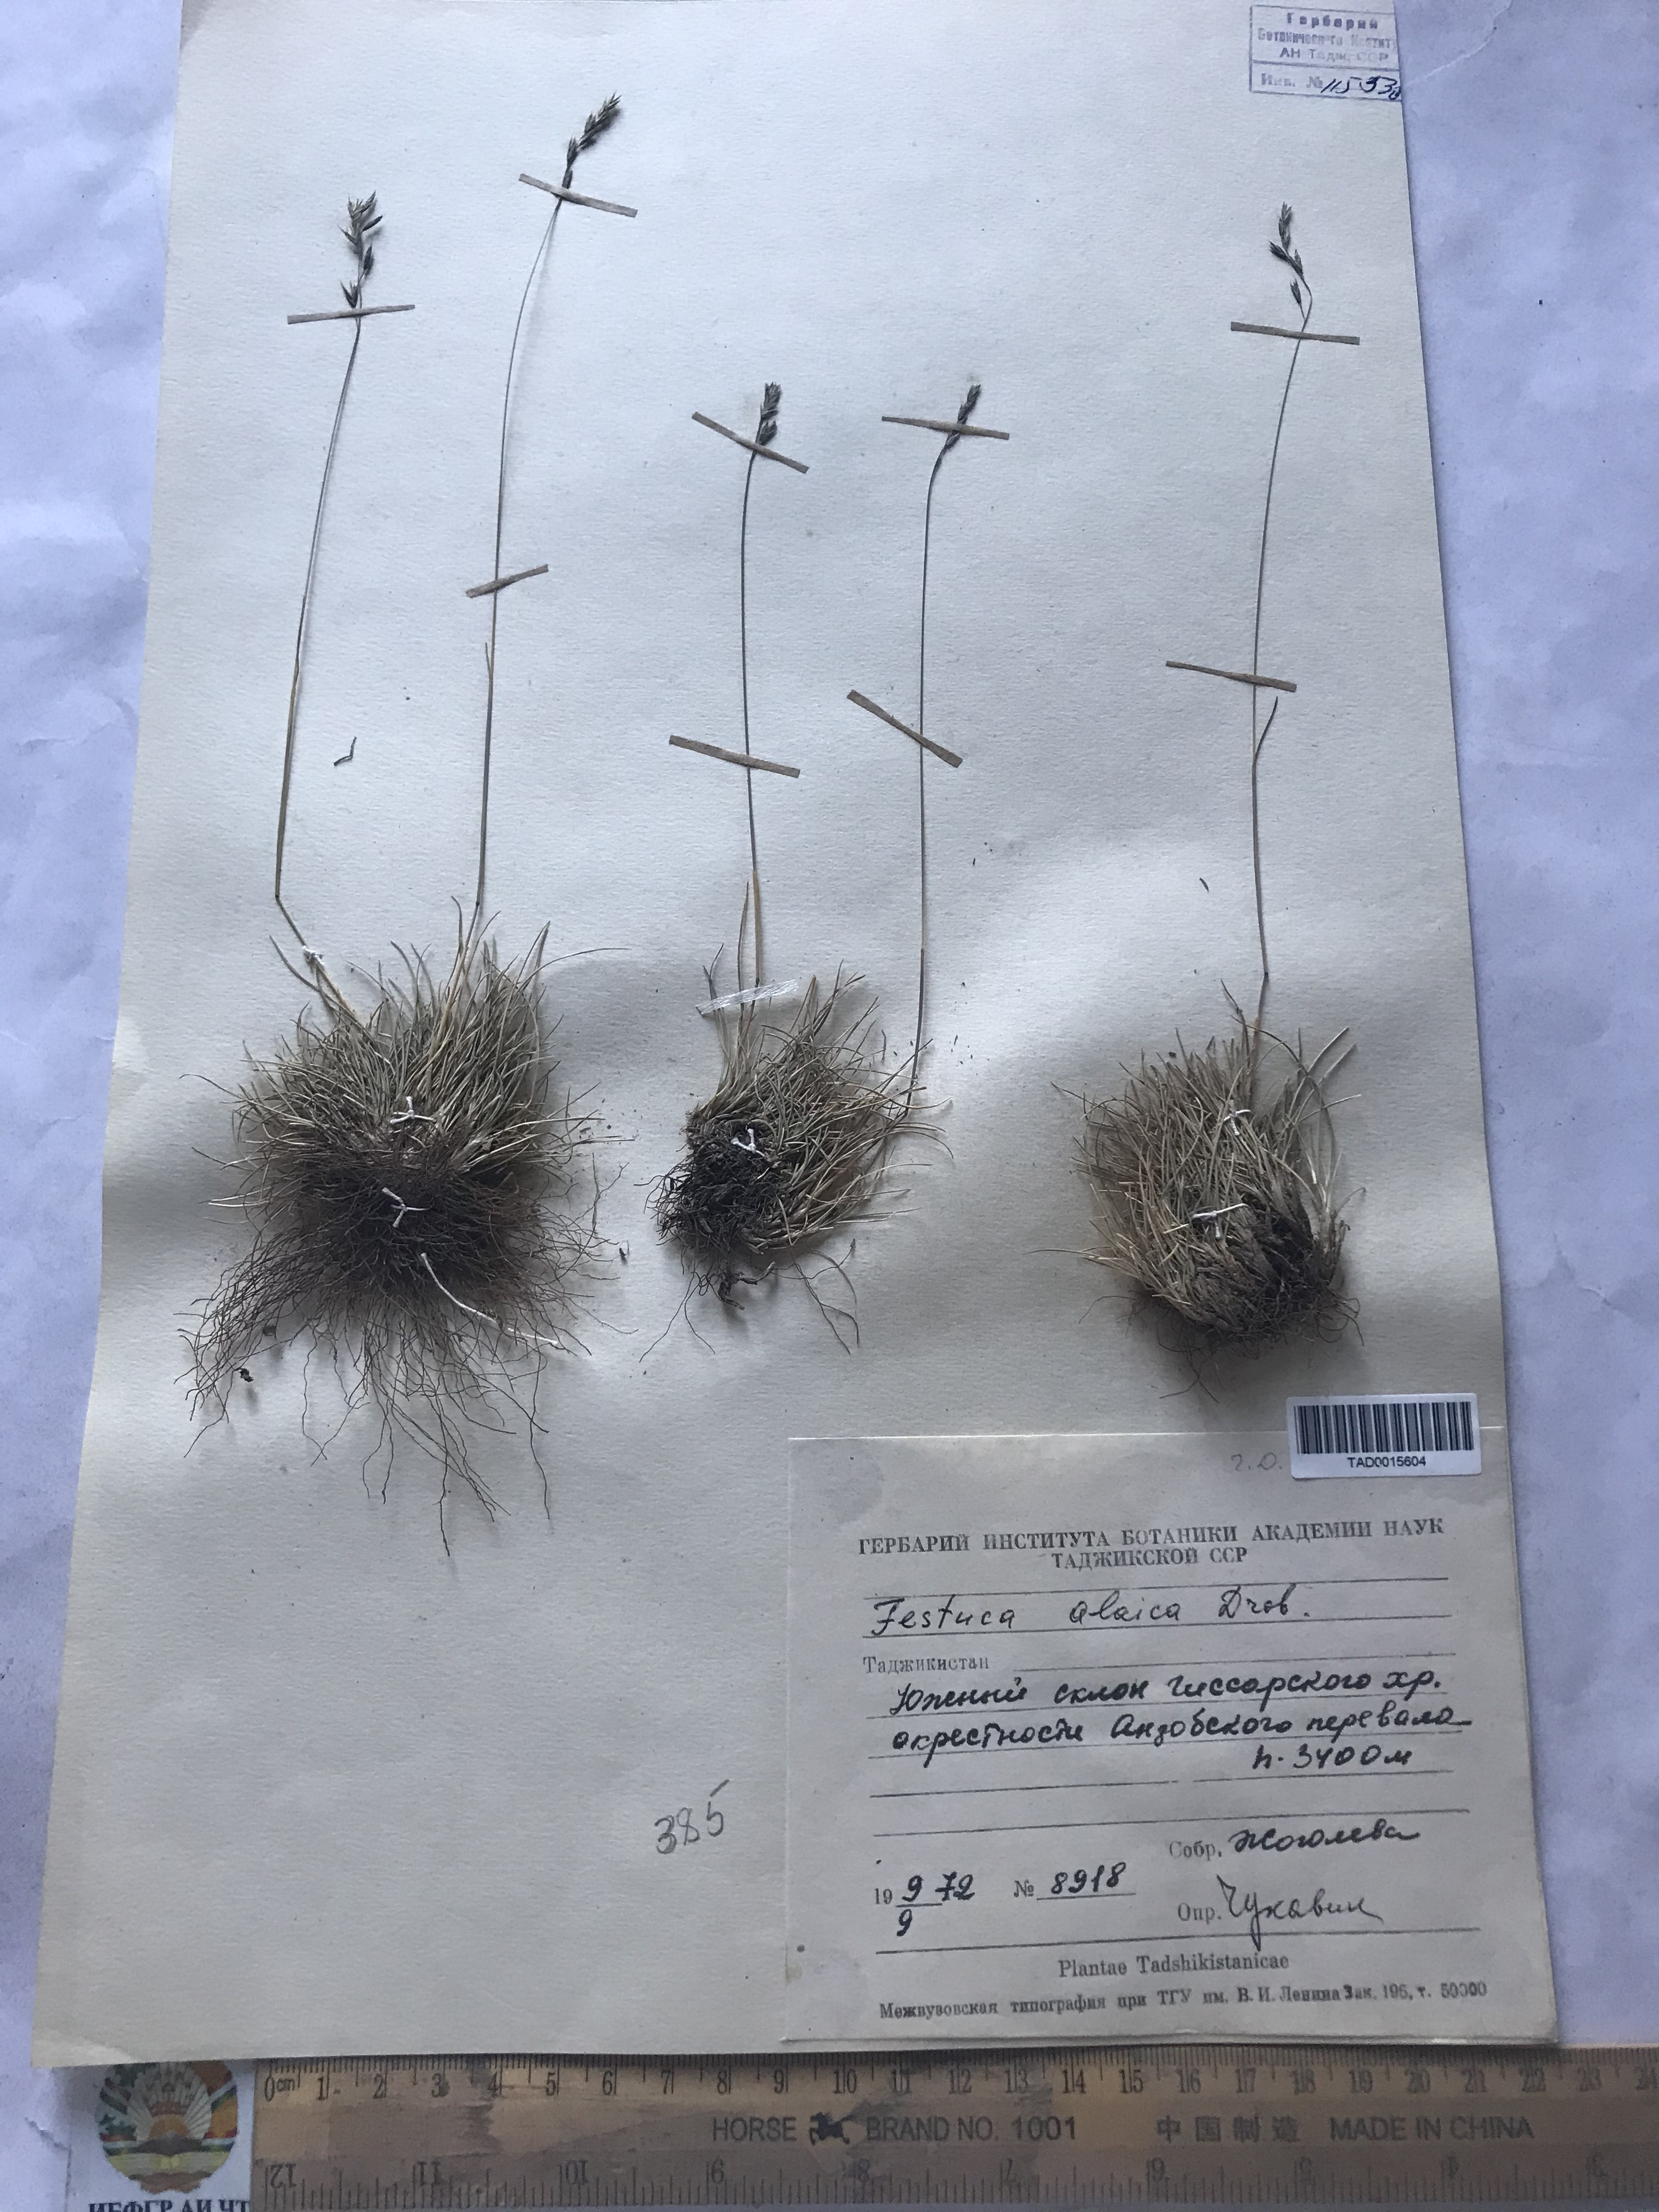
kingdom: Plantae
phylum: Tracheophyta
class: Liliopsida
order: Poales
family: Poaceae
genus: Festuca
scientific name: Festuca alaica
